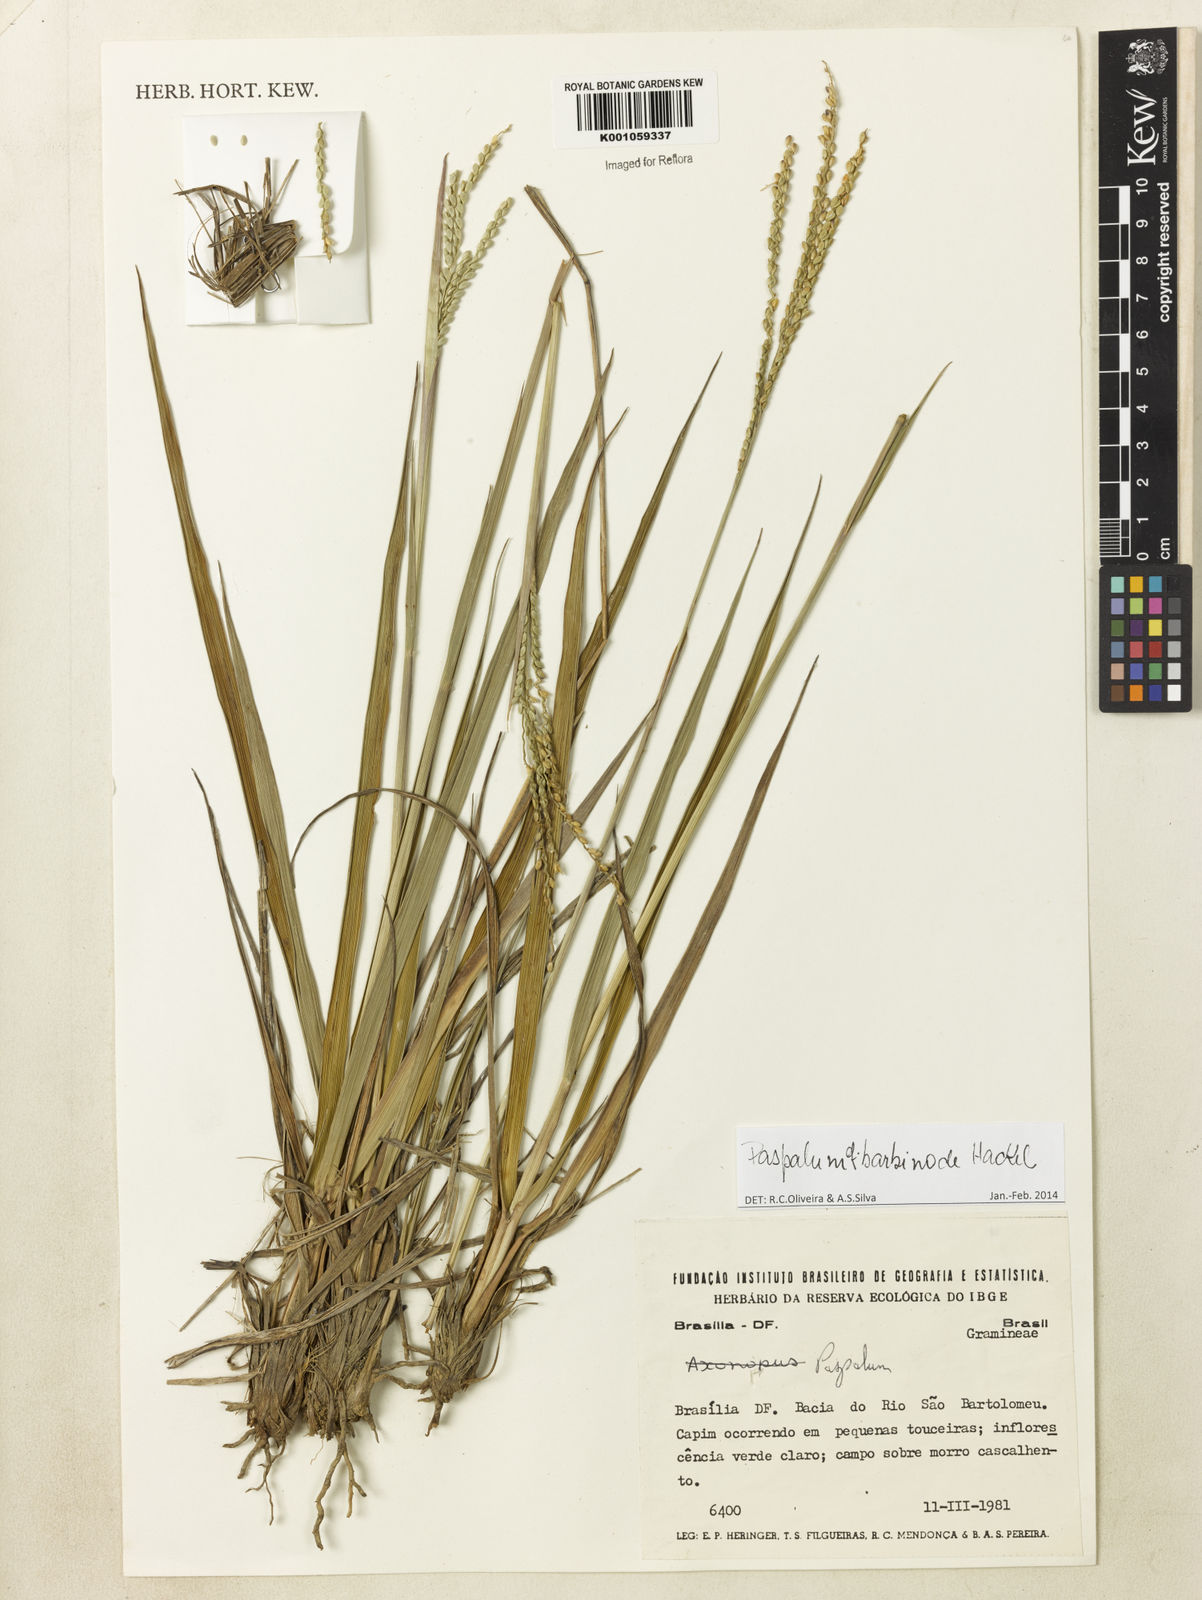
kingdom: Plantae
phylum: Tracheophyta
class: Liliopsida
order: Poales
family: Poaceae
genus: Paspalum
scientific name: Paspalum barbinode
